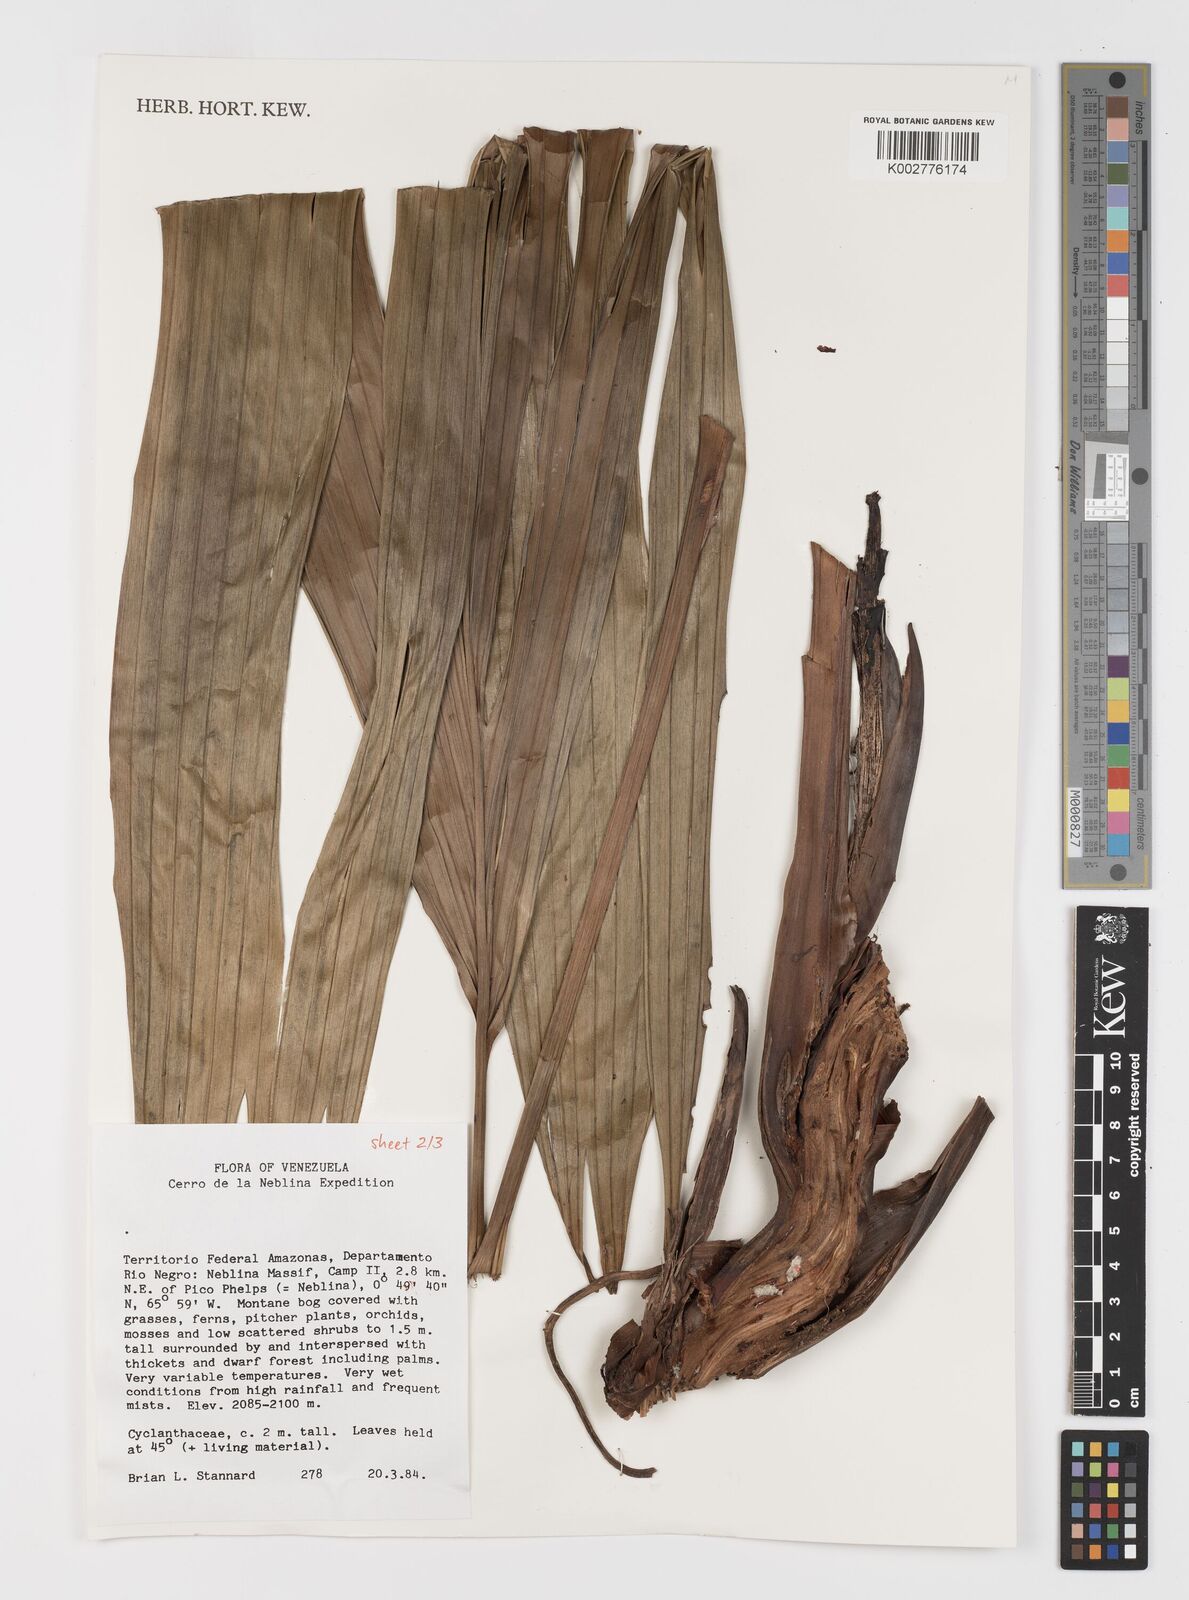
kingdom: Plantae
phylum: Tracheophyta
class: Liliopsida
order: Pandanales
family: Cyclanthaceae
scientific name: Cyclanthaceae
